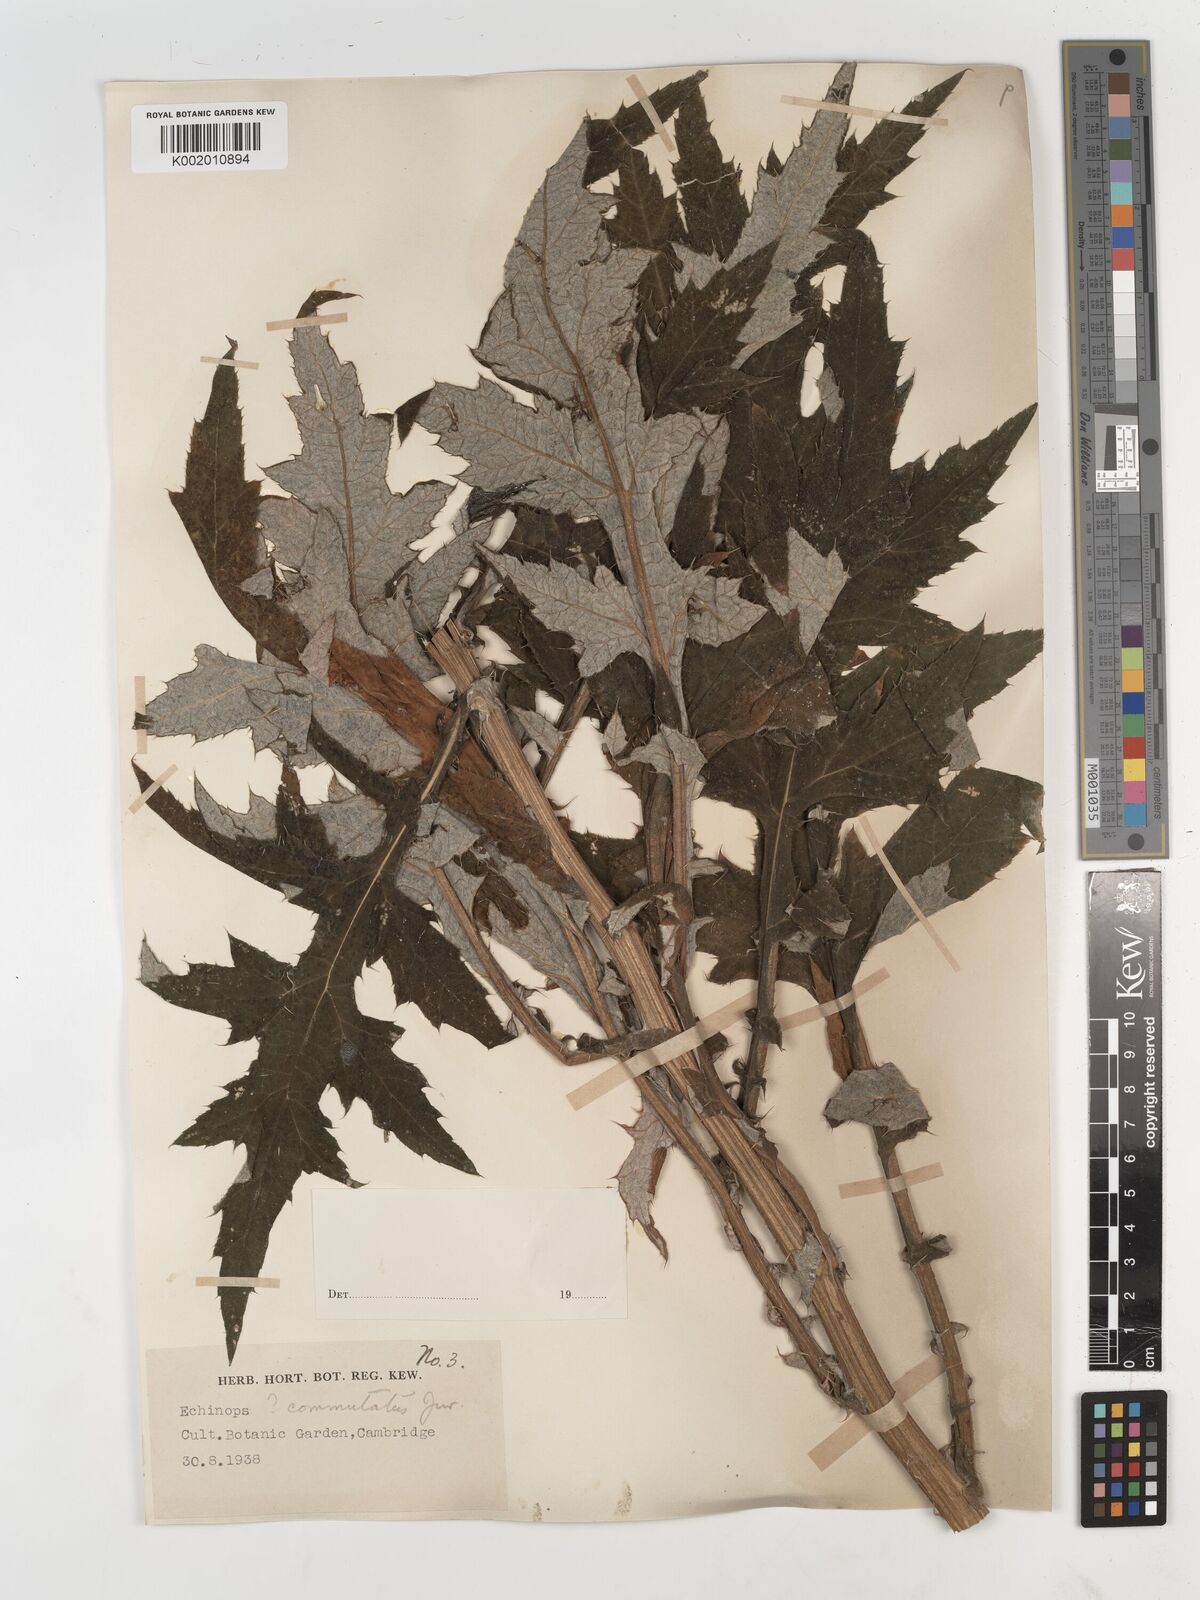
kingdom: Plantae
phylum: Tracheophyta
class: Magnoliopsida
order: Asterales
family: Asteraceae
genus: Echinops
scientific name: Echinops
